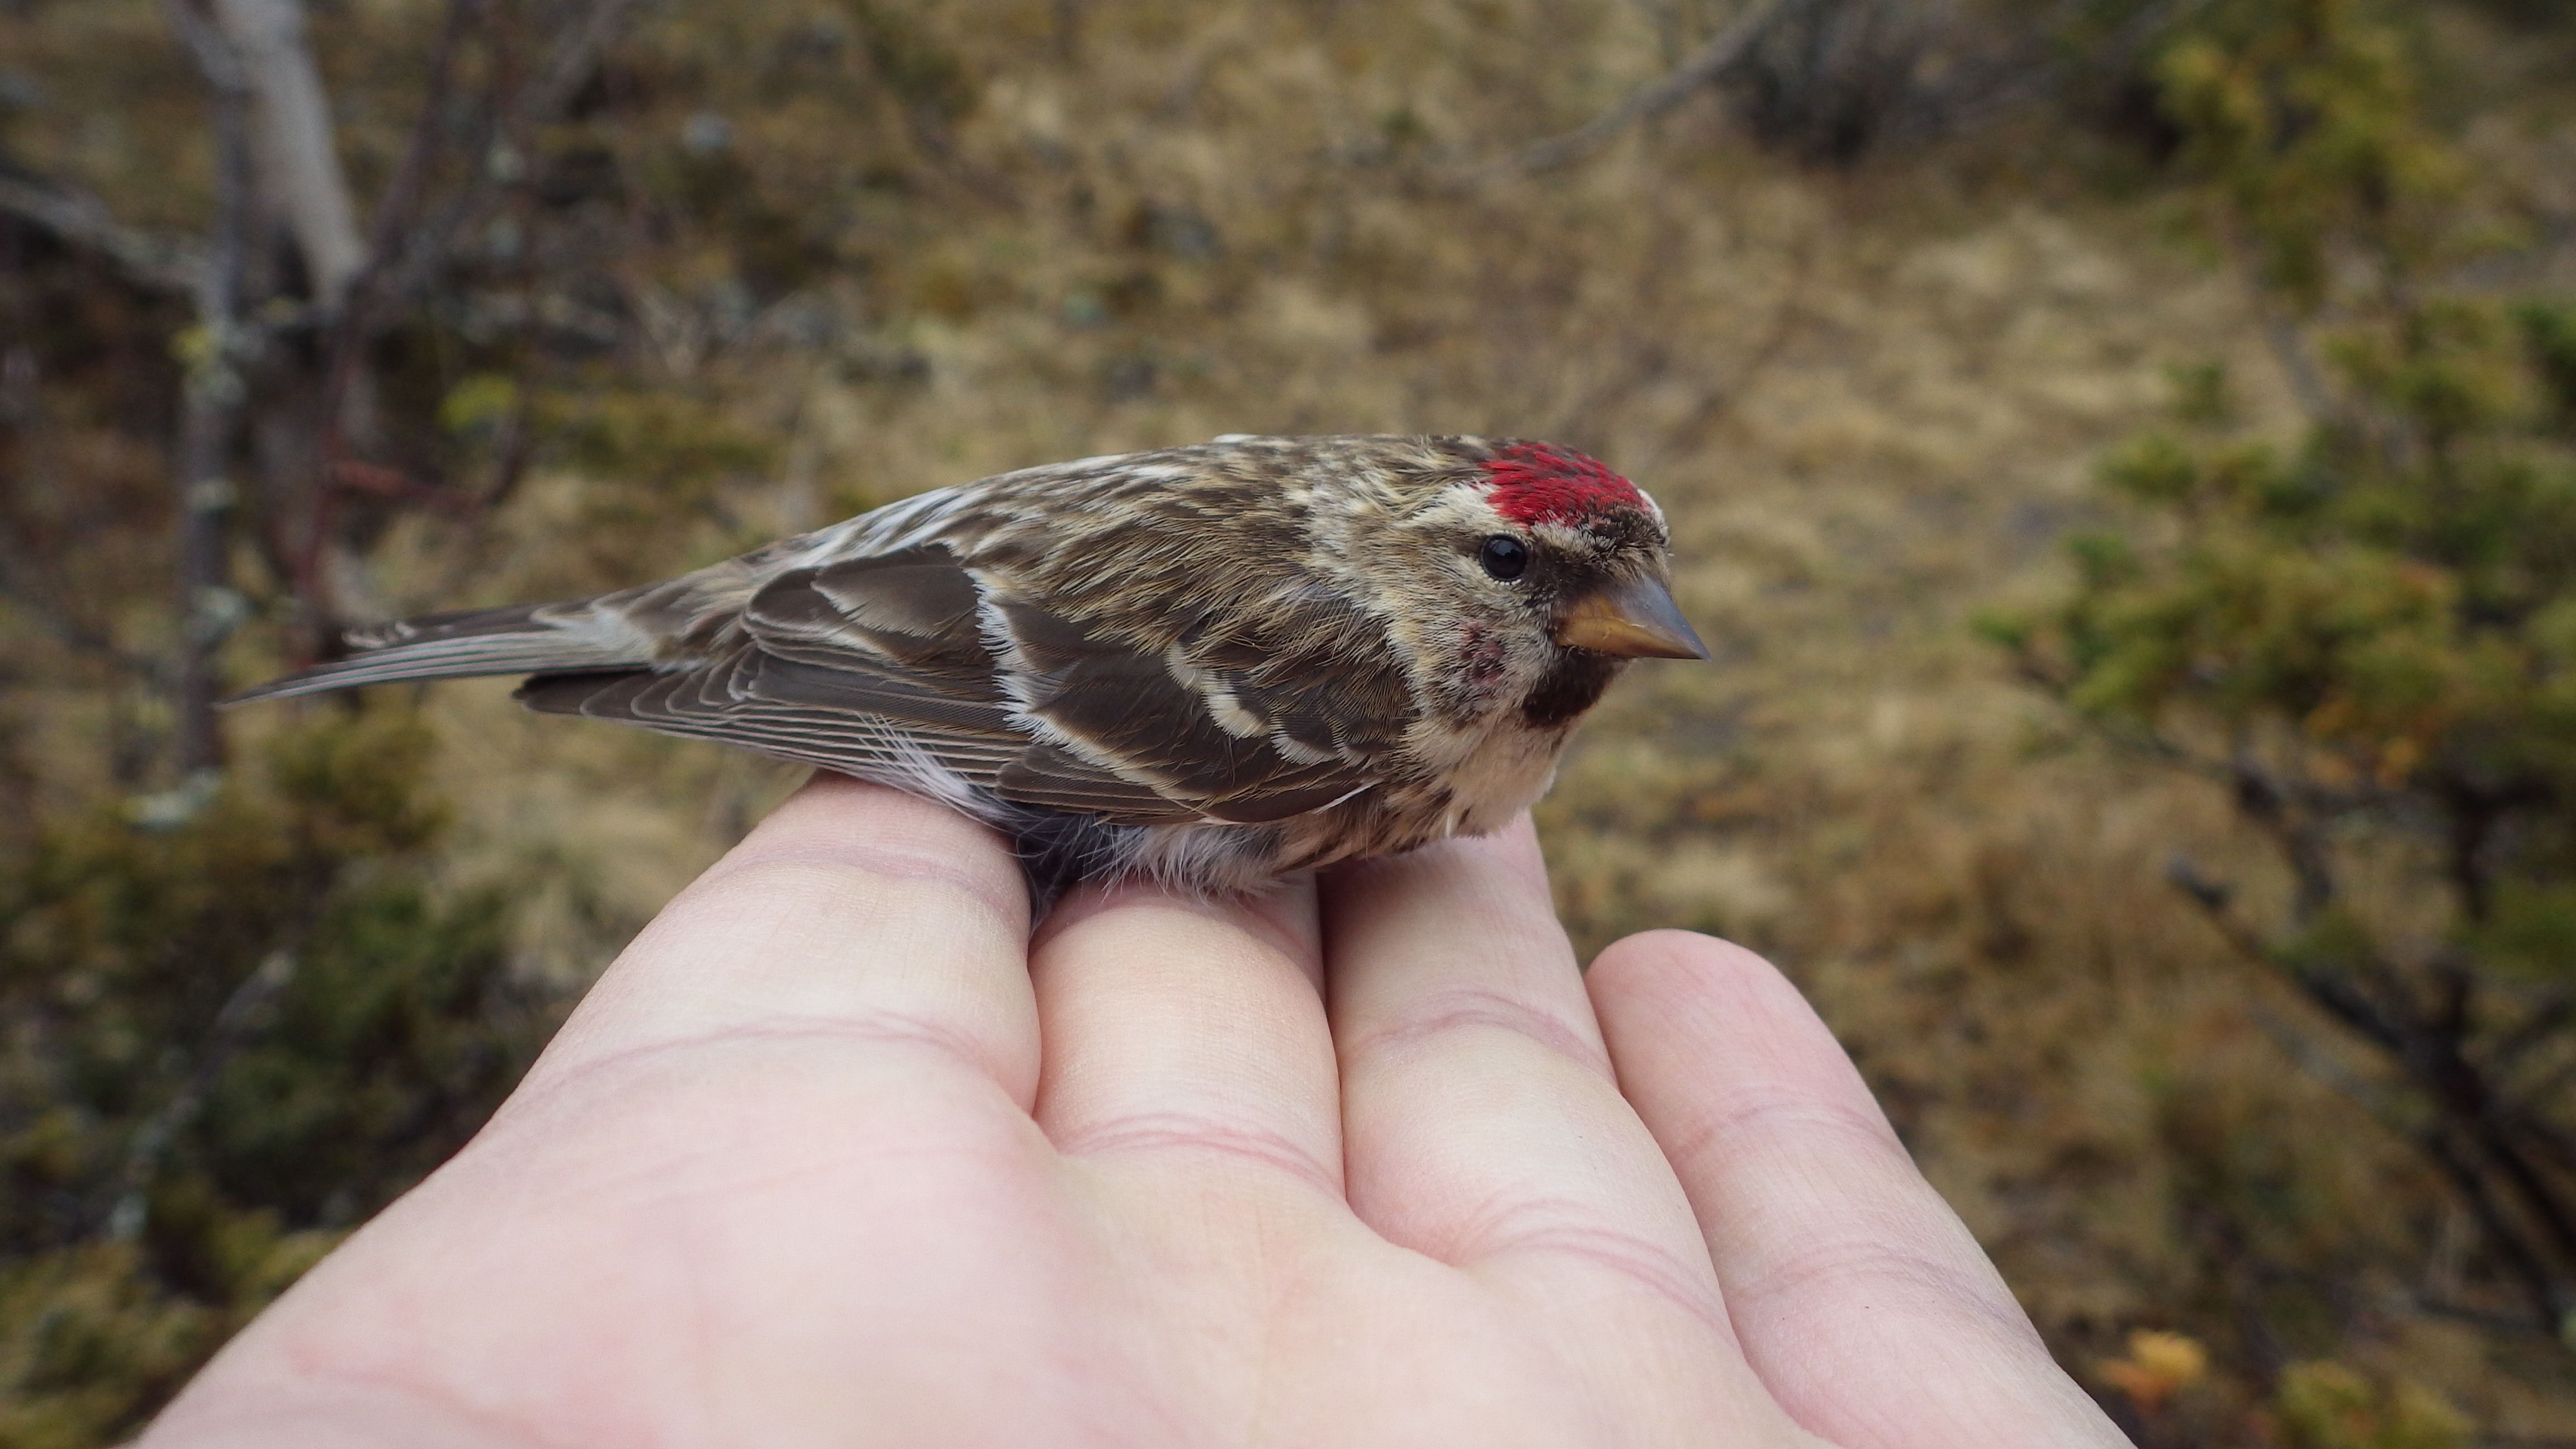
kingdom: Animalia
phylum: Chordata
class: Aves
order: Passeriformes
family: Fringillidae
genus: Acanthis
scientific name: Acanthis flammea
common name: Common redpoll
